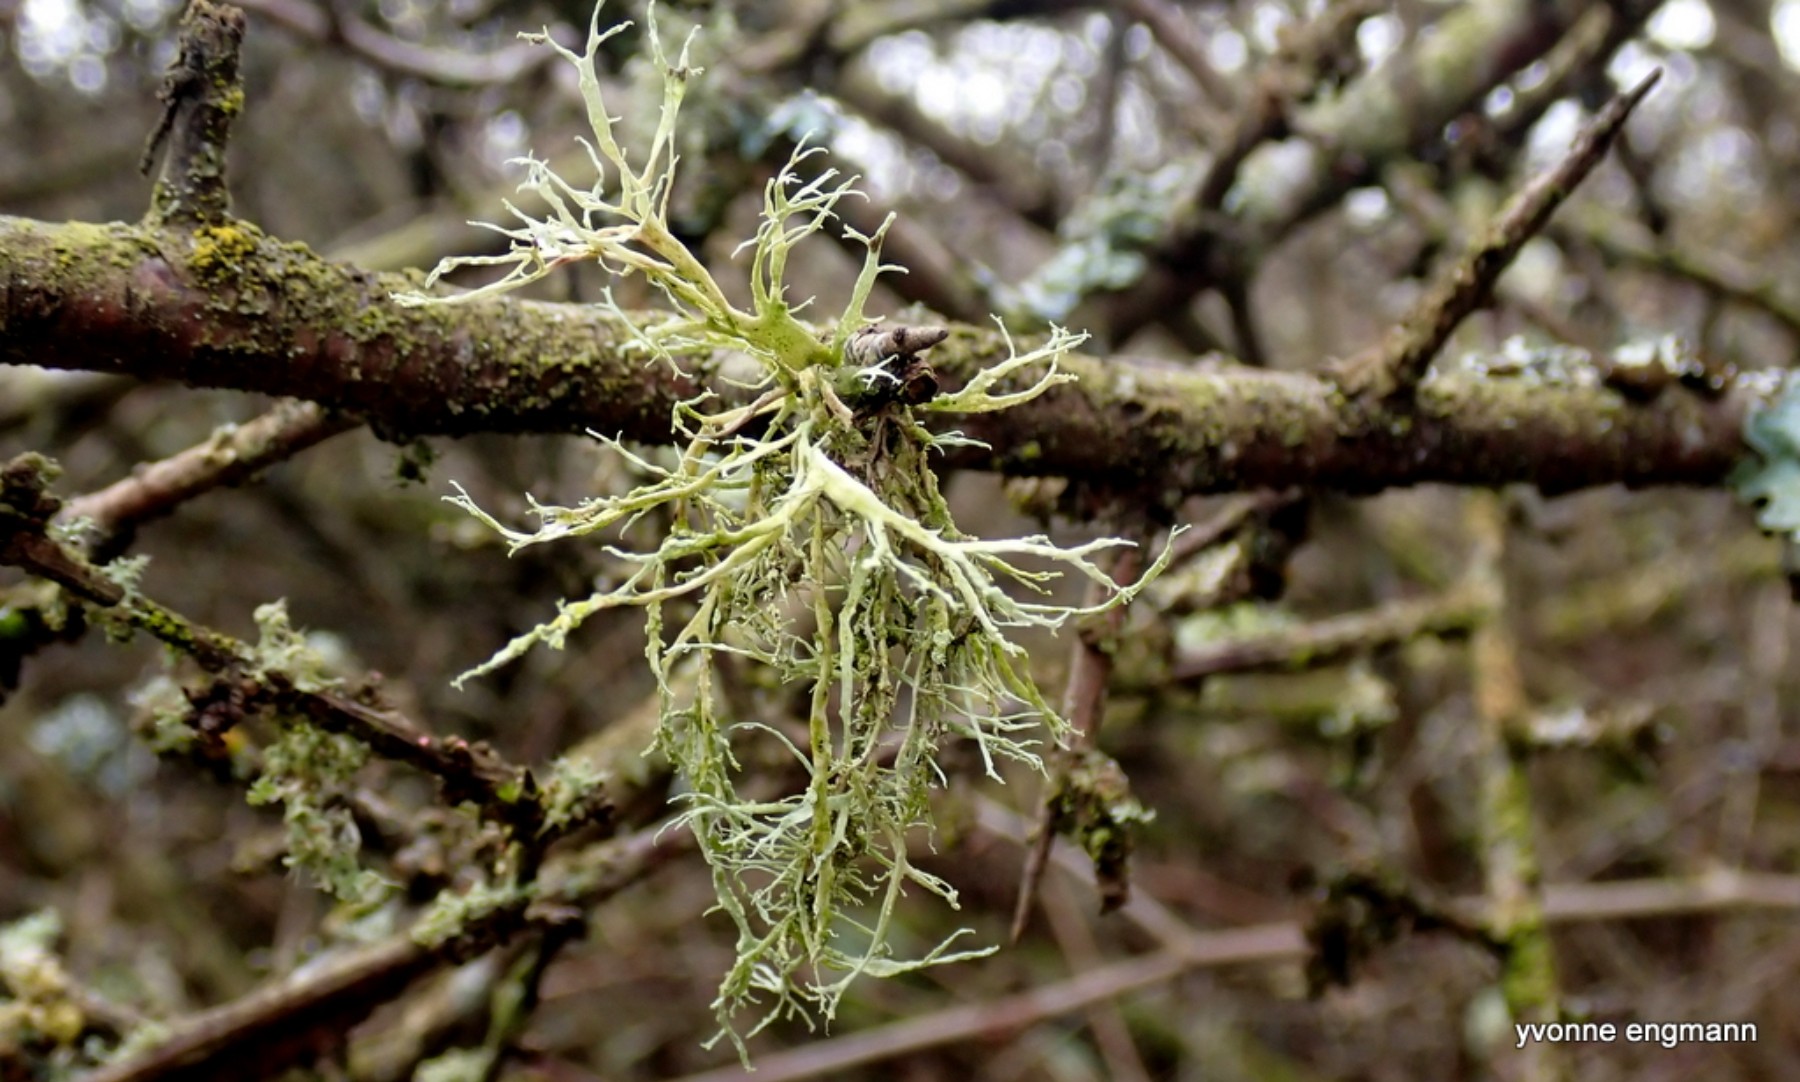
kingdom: Fungi
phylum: Ascomycota
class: Lecanoromycetes
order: Lecanorales
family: Ramalinaceae
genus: Ramalina
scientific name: Ramalina farinacea
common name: melet grenlav
